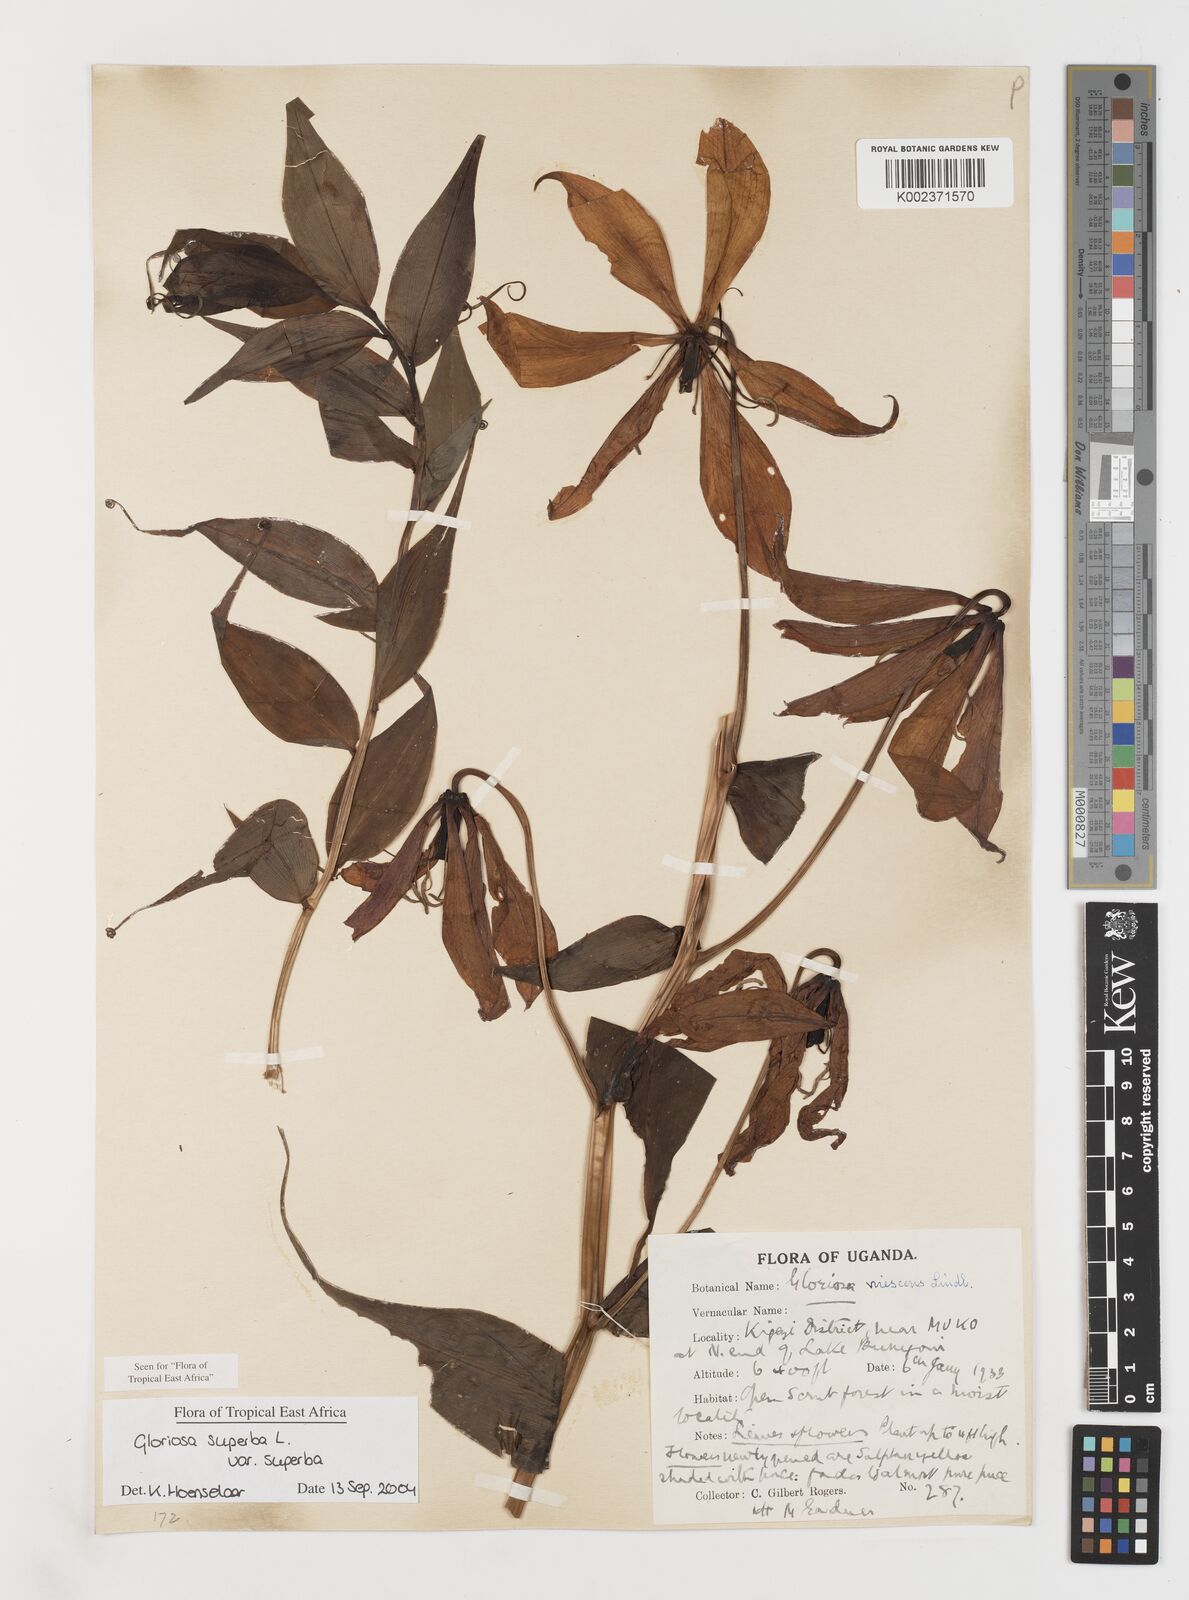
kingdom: Plantae
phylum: Tracheophyta
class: Liliopsida
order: Liliales
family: Colchicaceae
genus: Gloriosa
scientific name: Gloriosa simplex
